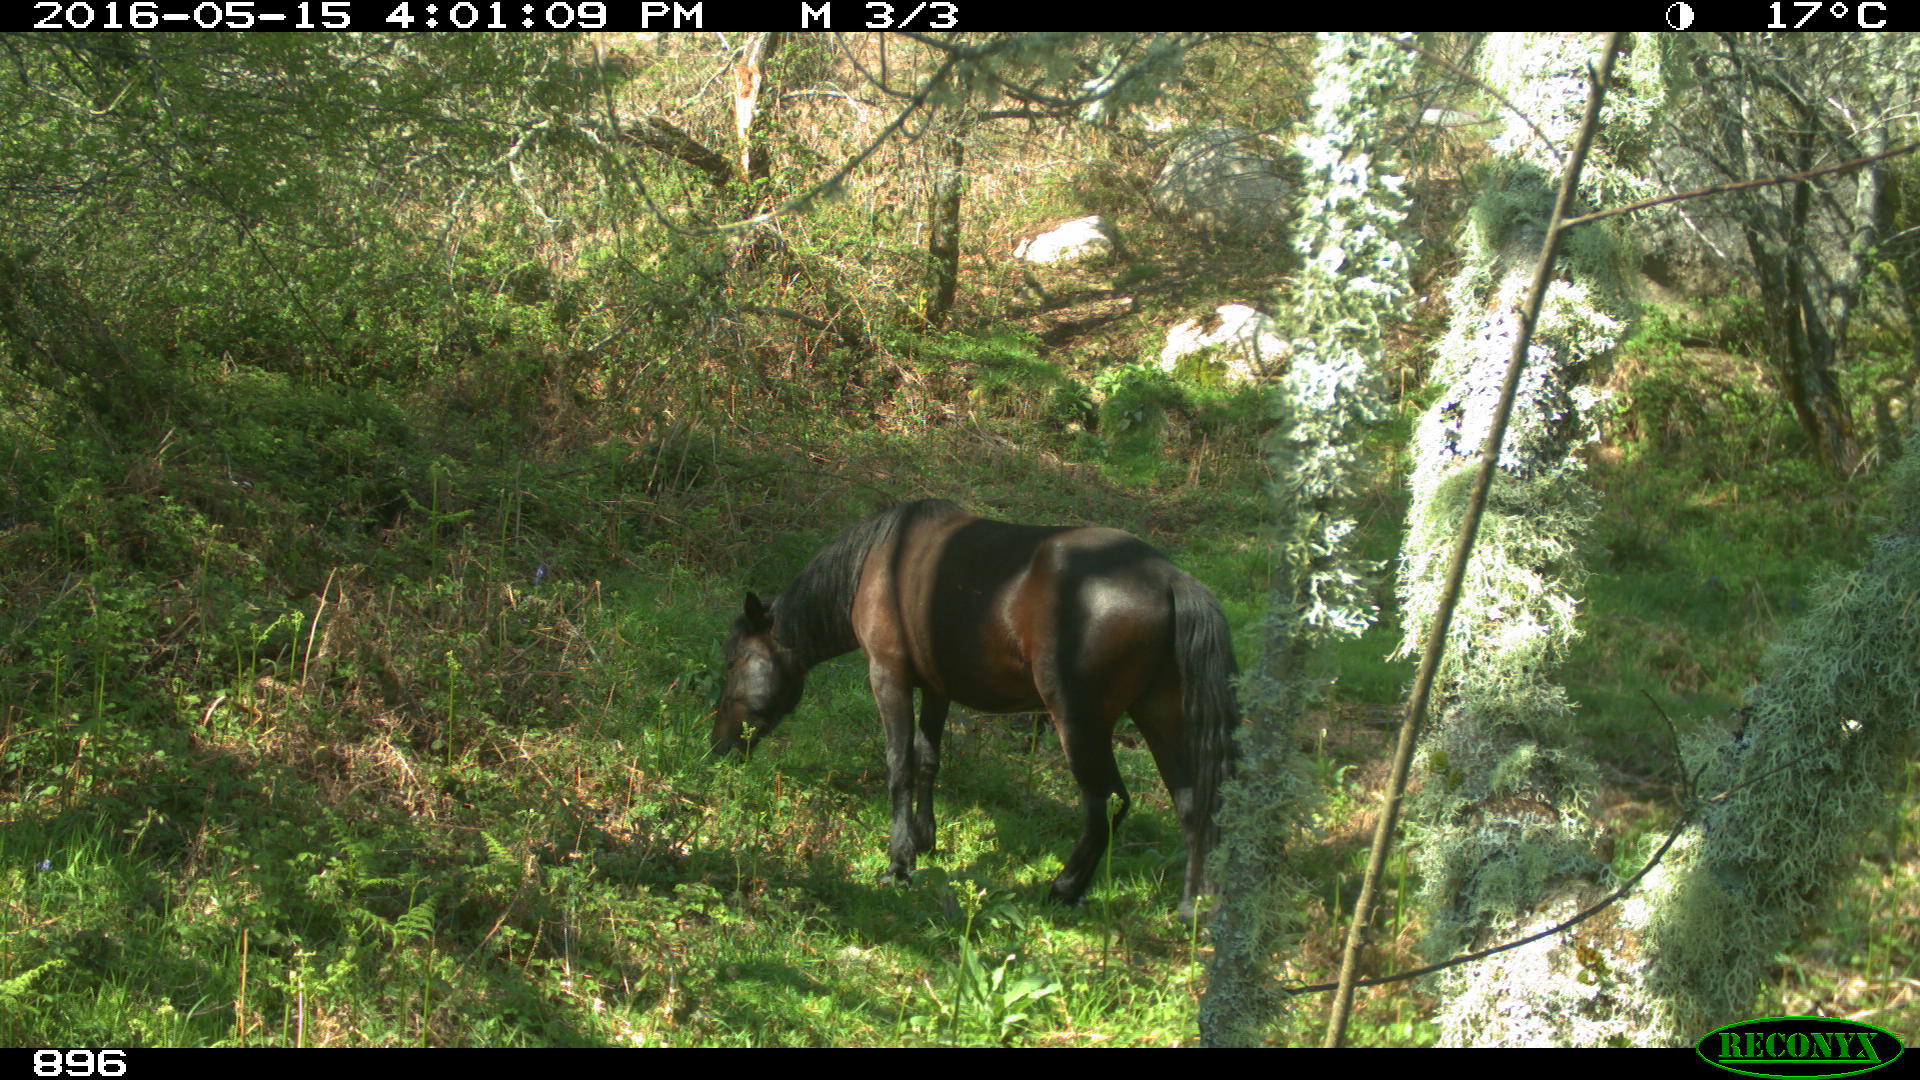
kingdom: Animalia
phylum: Chordata
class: Mammalia
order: Perissodactyla
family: Equidae
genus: Equus
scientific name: Equus caballus
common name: Horse
